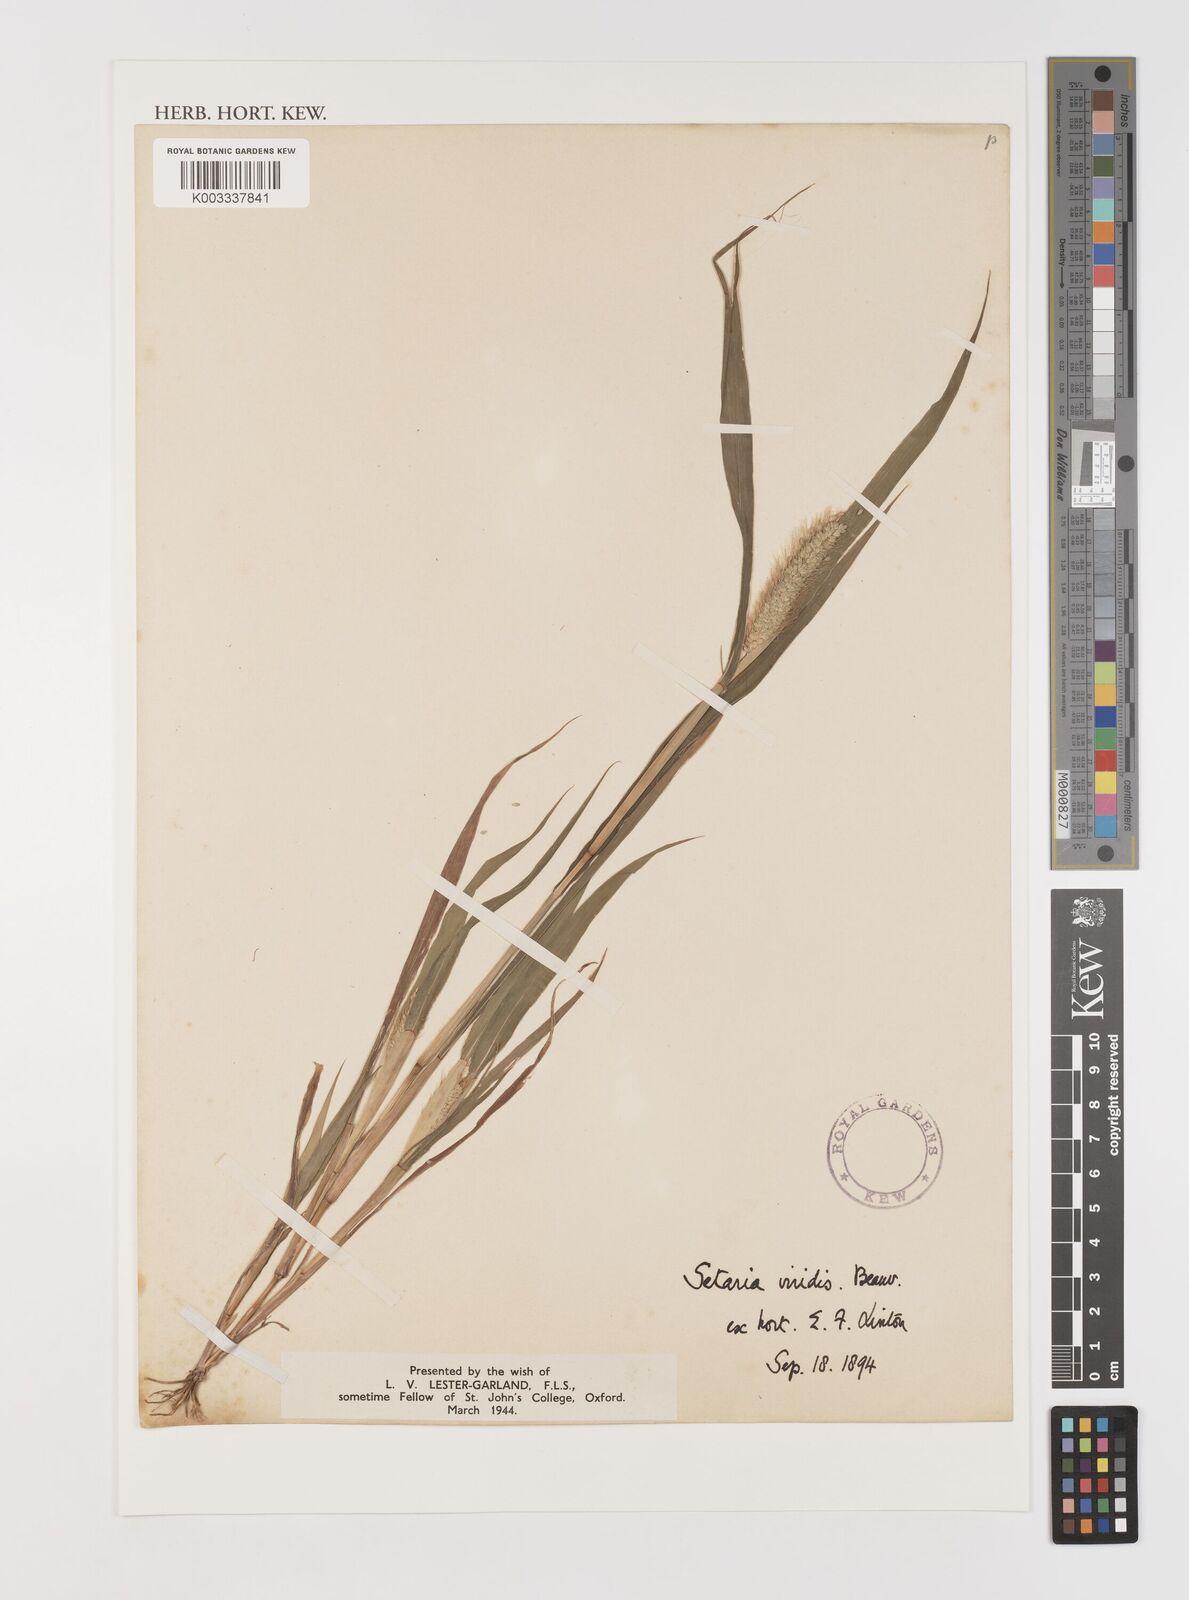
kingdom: Plantae
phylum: Tracheophyta
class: Liliopsida
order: Poales
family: Poaceae
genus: Setaria
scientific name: Setaria viridis
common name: Green bristlegrass
